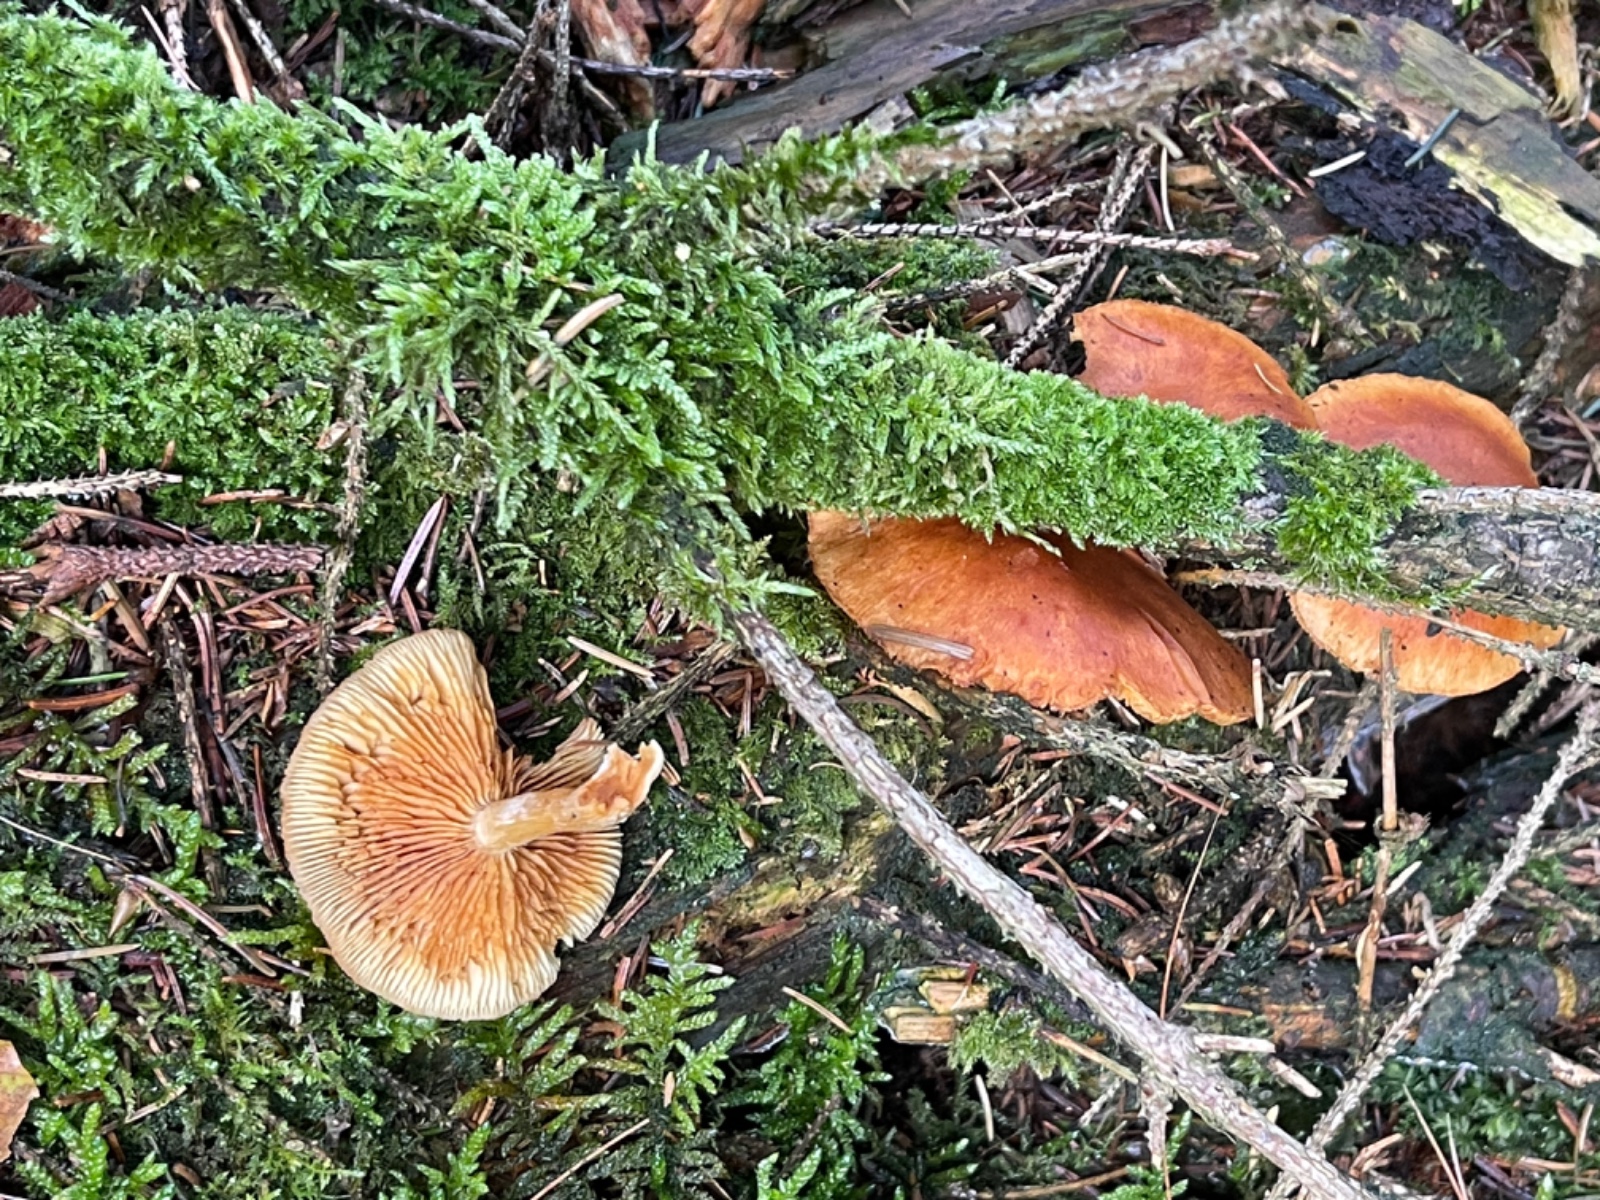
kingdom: Fungi
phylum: Basidiomycota
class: Agaricomycetes
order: Agaricales
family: Hymenogastraceae
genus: Gymnopilus
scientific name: Gymnopilus penetrans
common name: plettet flammehat
